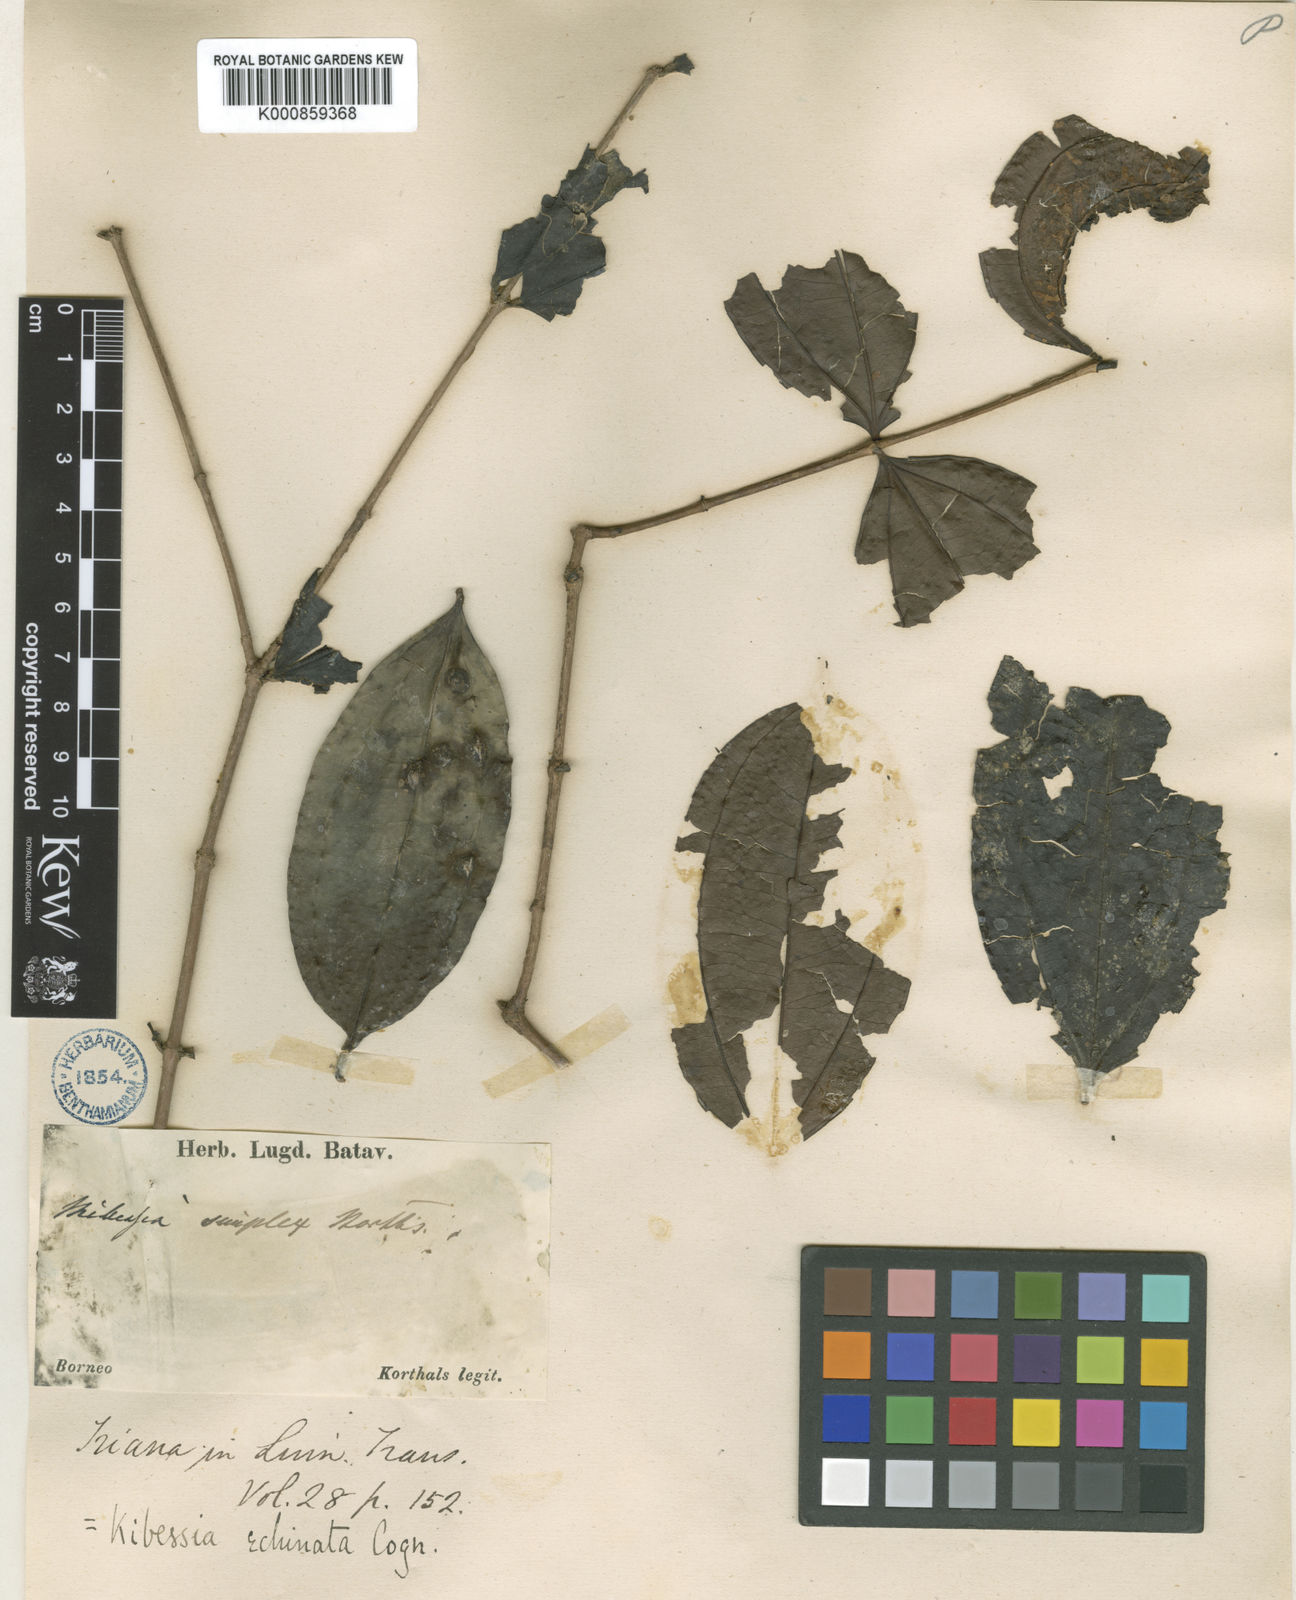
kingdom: Plantae
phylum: Tracheophyta
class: Magnoliopsida
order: Myrtales
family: Melastomataceae
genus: Pternandra
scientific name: Pternandra azurea
